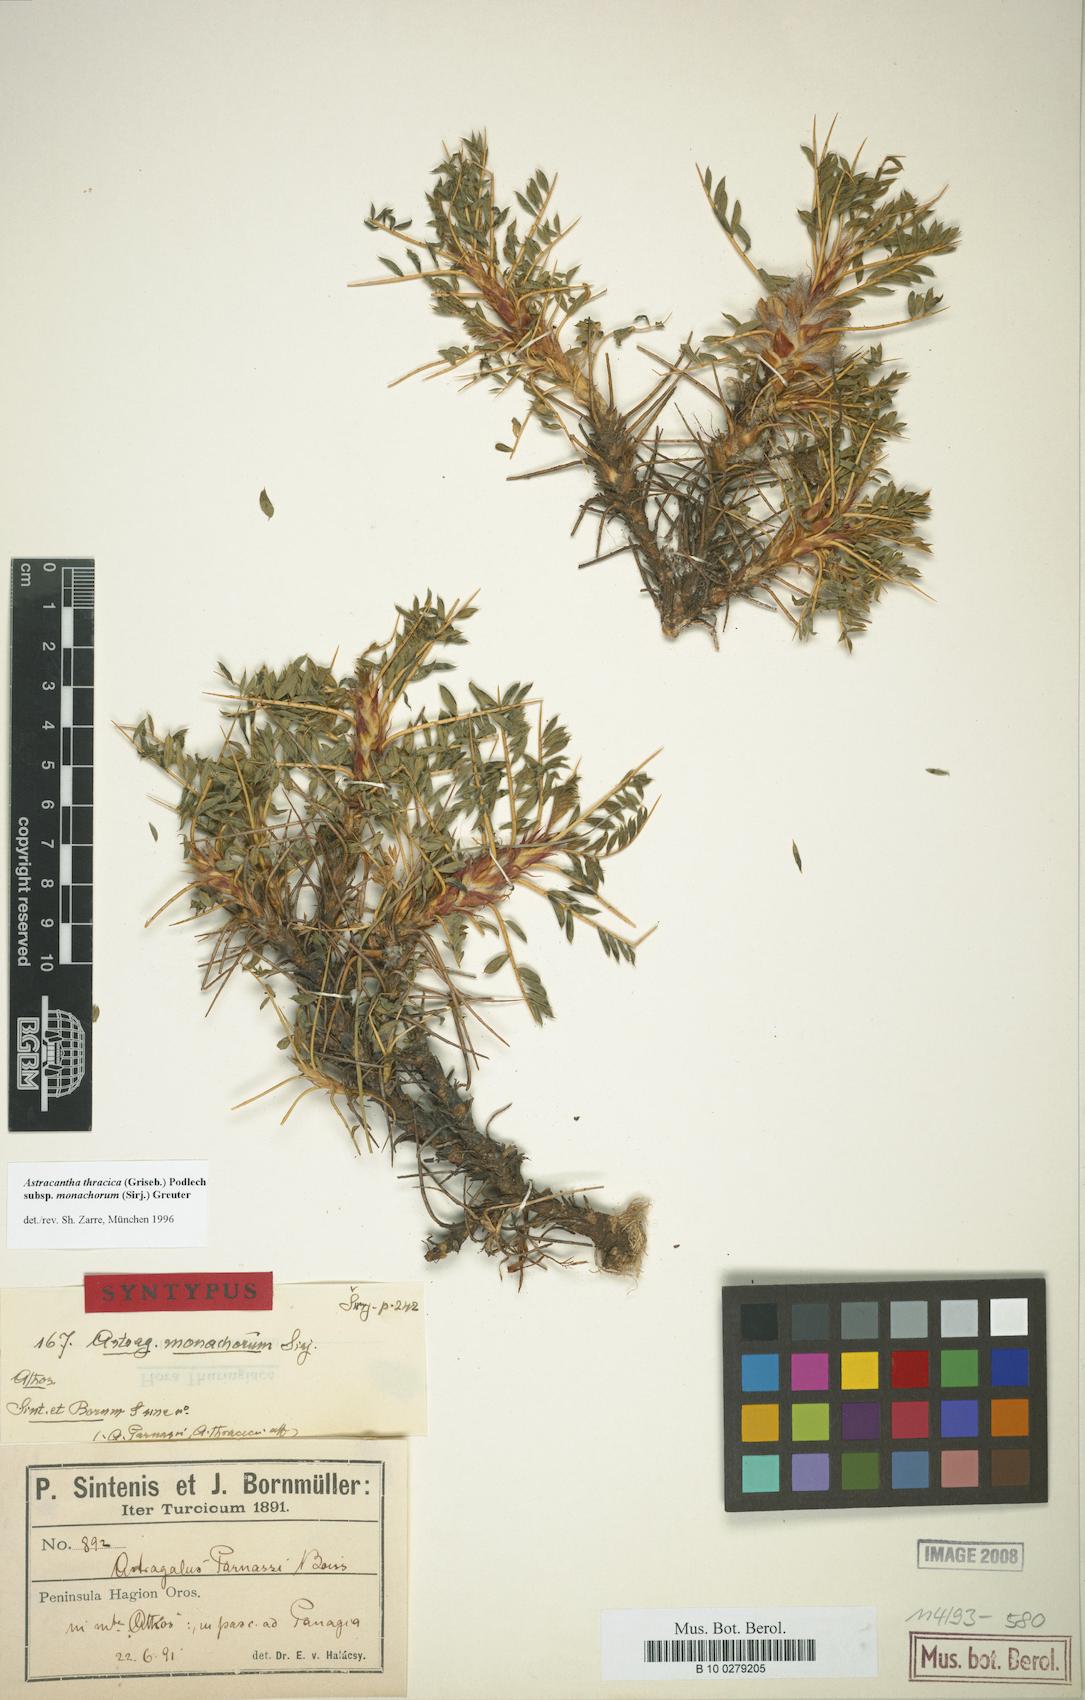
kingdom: Plantae
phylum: Tracheophyta
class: Magnoliopsida
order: Fabales
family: Fabaceae
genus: Astragalus
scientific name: Astragalus thracicus
